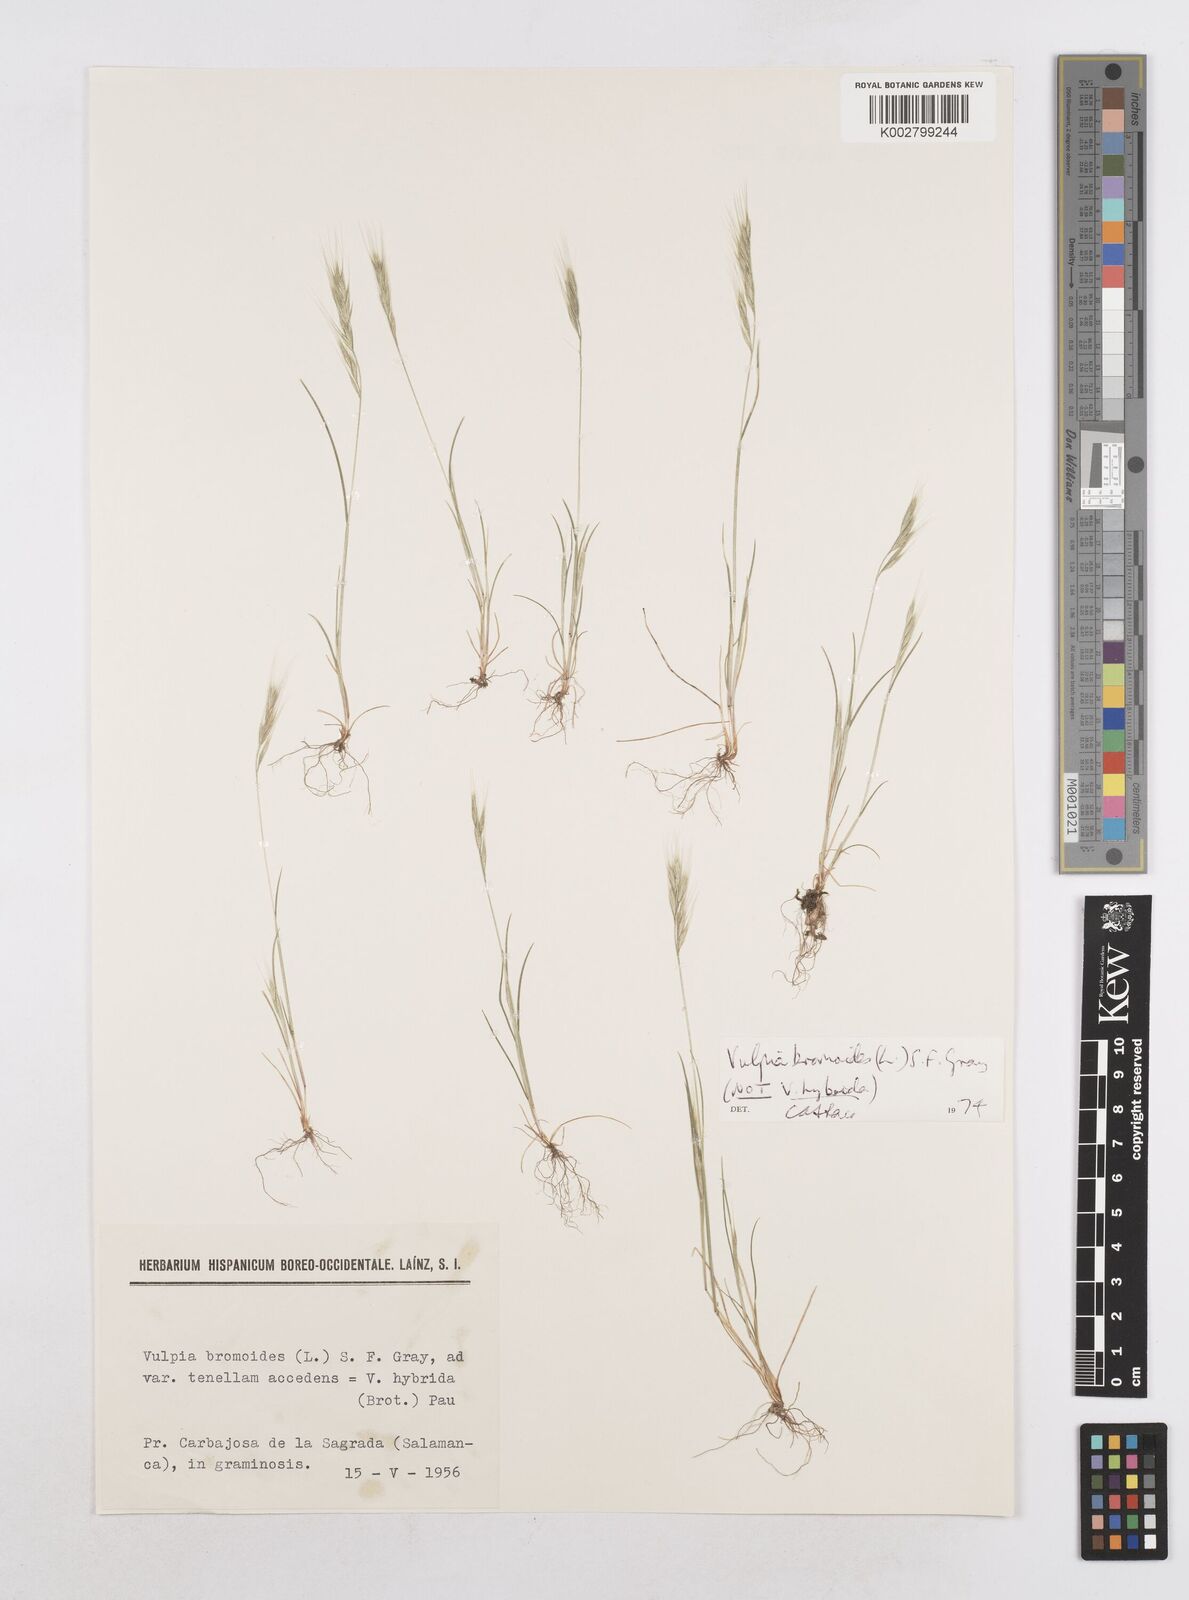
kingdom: Plantae
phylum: Tracheophyta
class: Liliopsida
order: Poales
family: Poaceae
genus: Festuca
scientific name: Festuca bromoides
